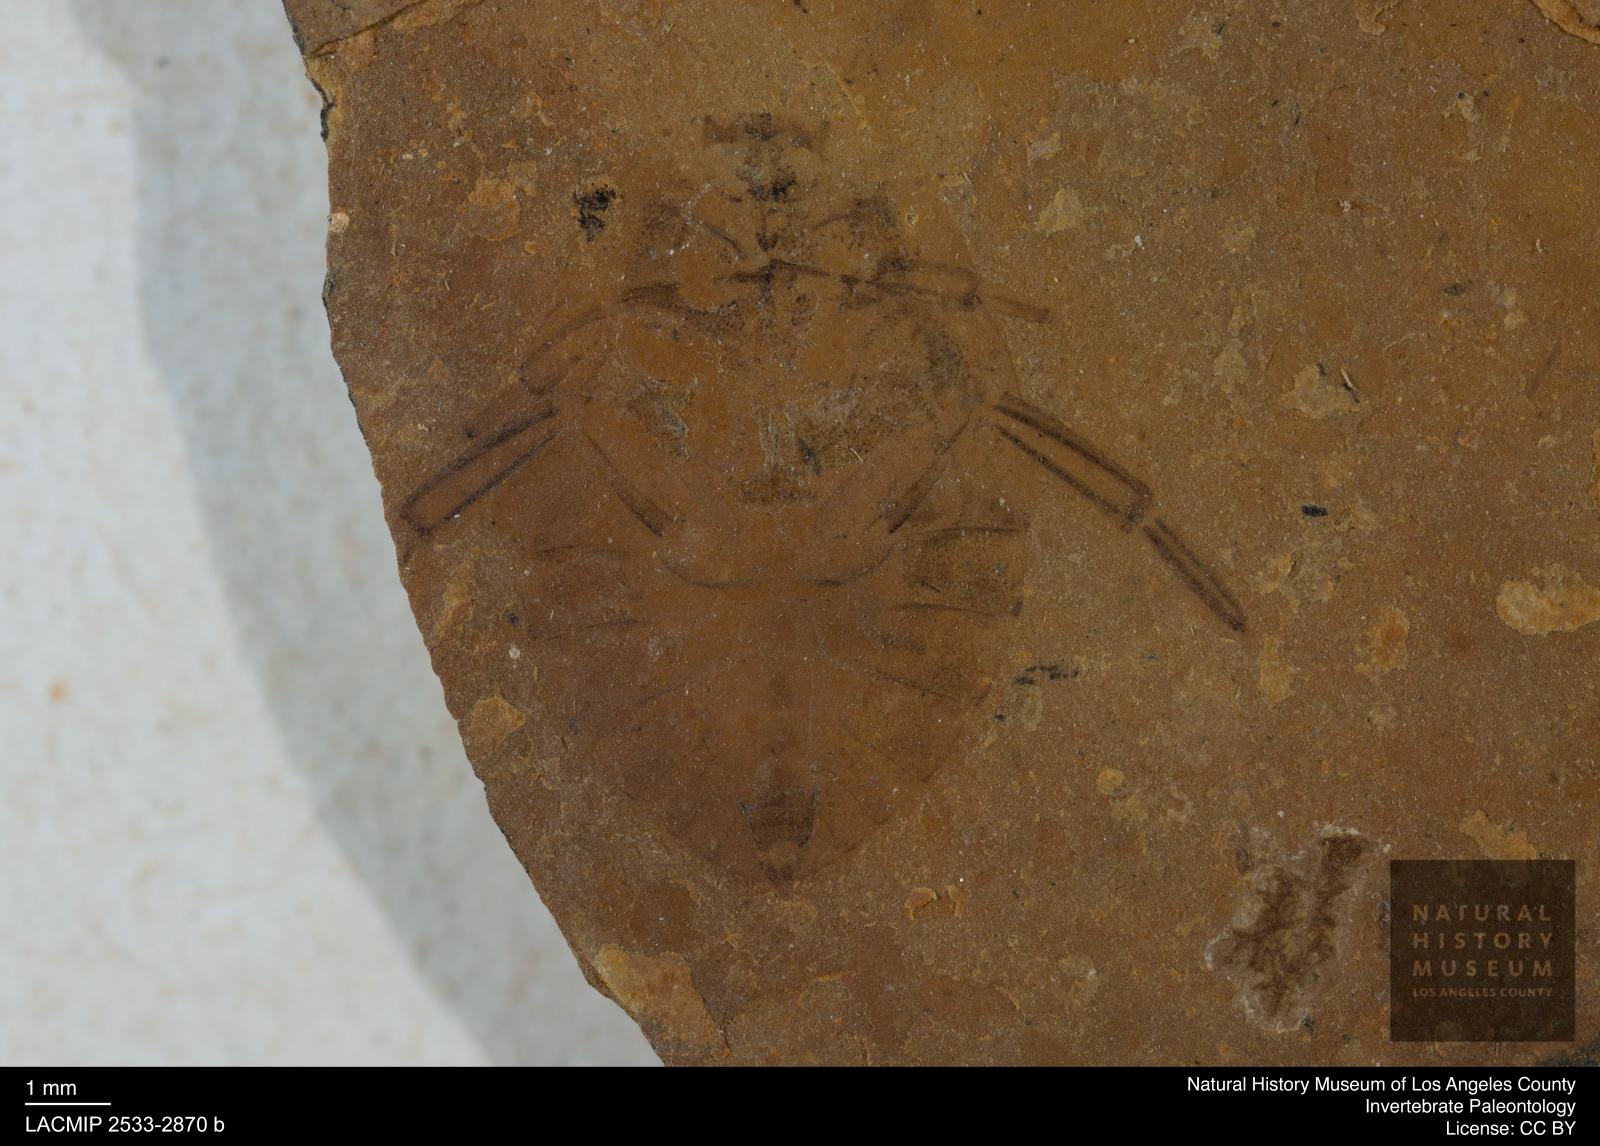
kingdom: Animalia
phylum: Arthropoda
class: Insecta
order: Hemiptera
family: Naucoridae
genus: Naucoris
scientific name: Naucoris rottensis
